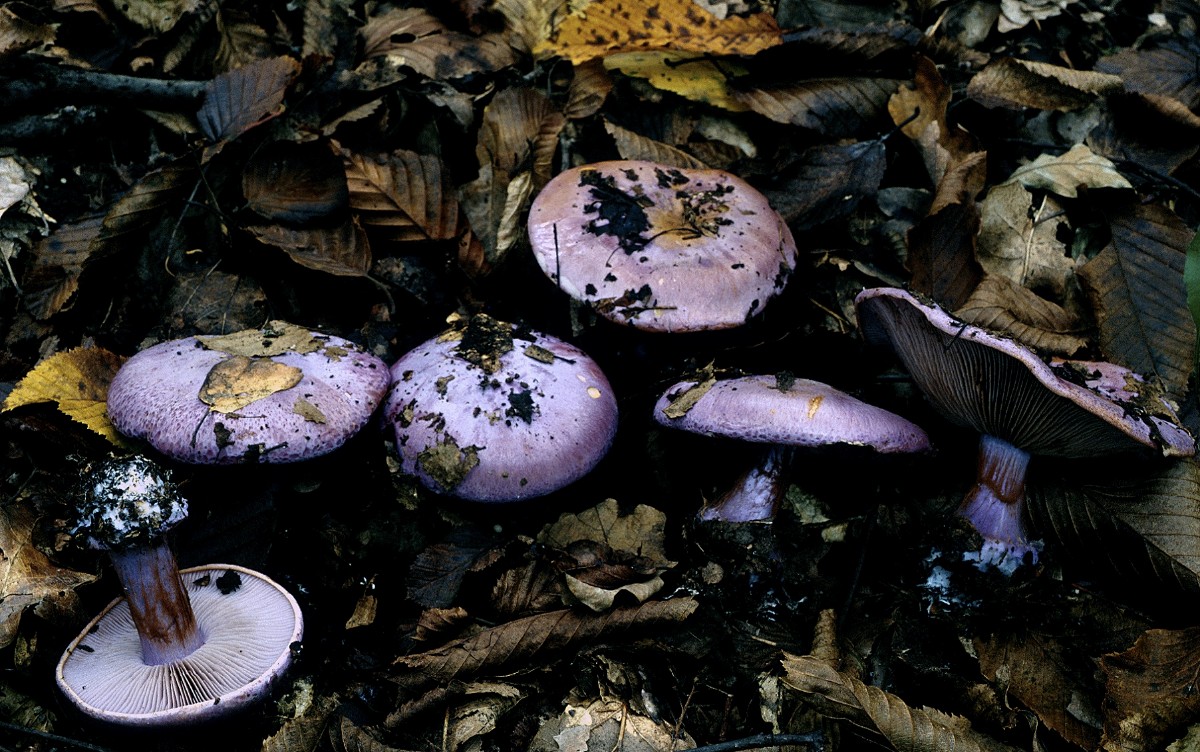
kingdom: Fungi
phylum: Basidiomycota
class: Agaricomycetes
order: Agaricales
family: Cortinariaceae
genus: Calonarius
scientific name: Calonarius sodagnitus
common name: violblå slørhat
